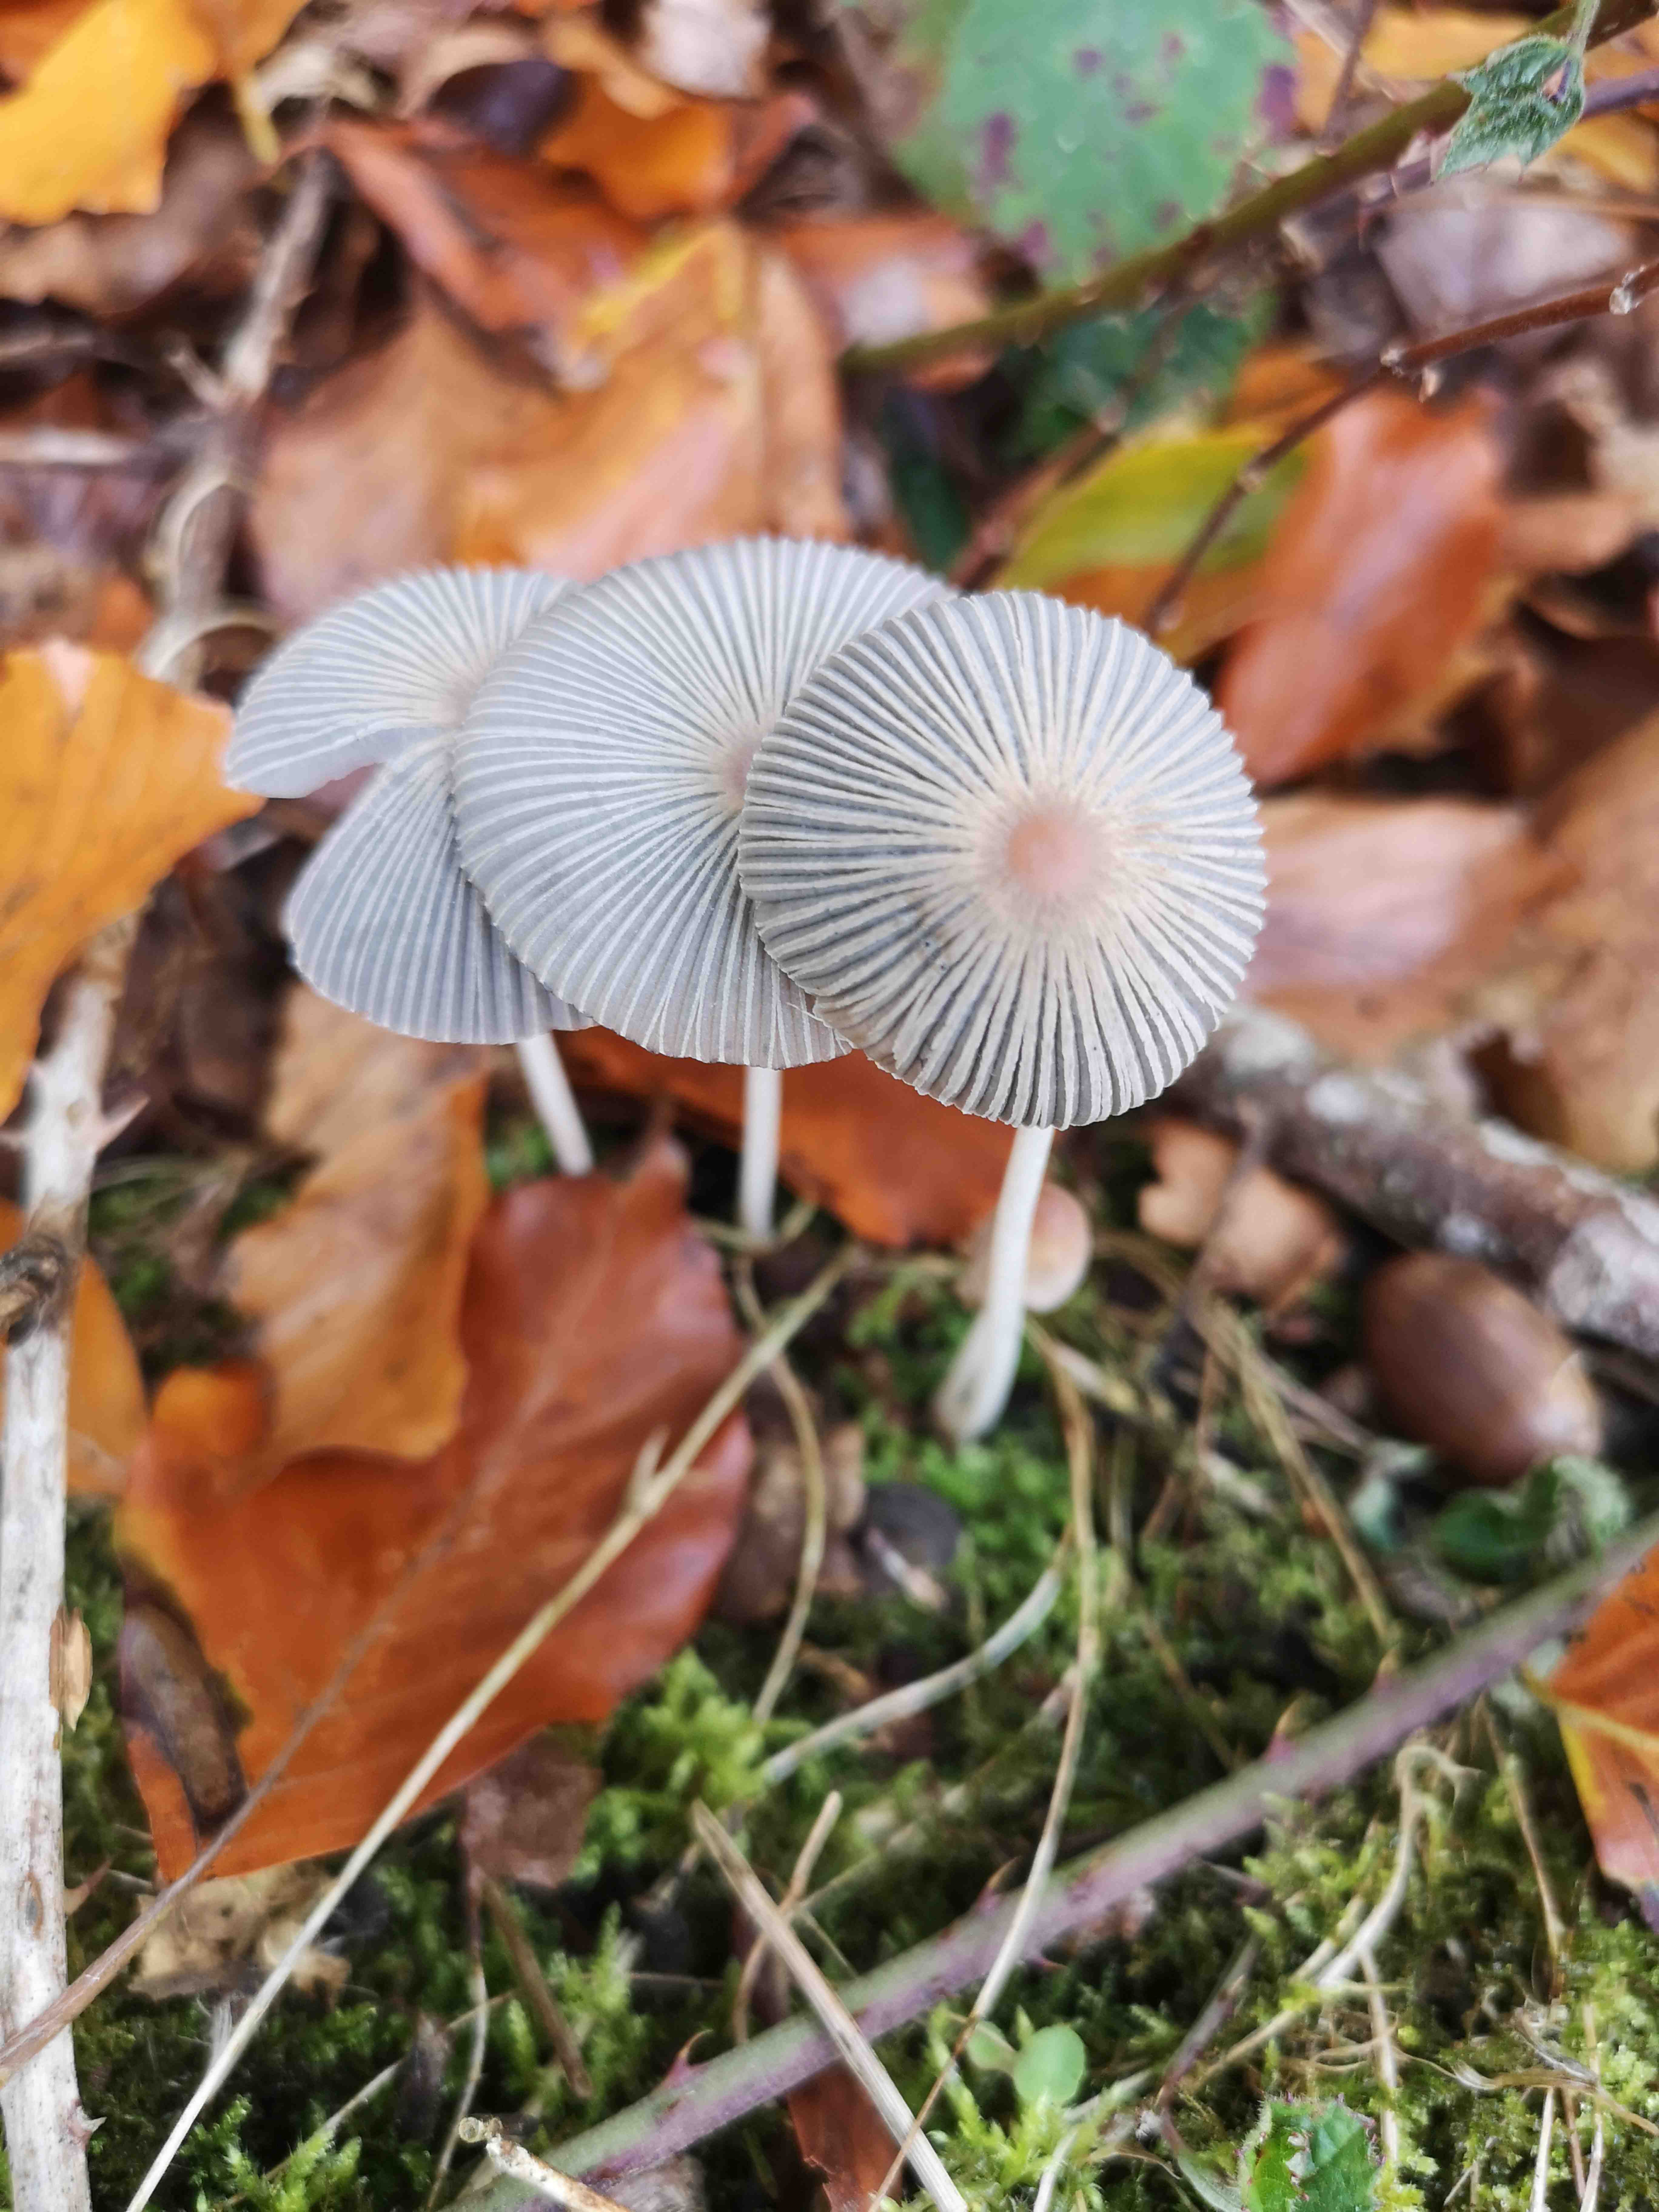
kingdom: Fungi
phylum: Basidiomycota
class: Agaricomycetes
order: Agaricales
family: Psathyrellaceae
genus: Parasola
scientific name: Parasola
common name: hjulhat
